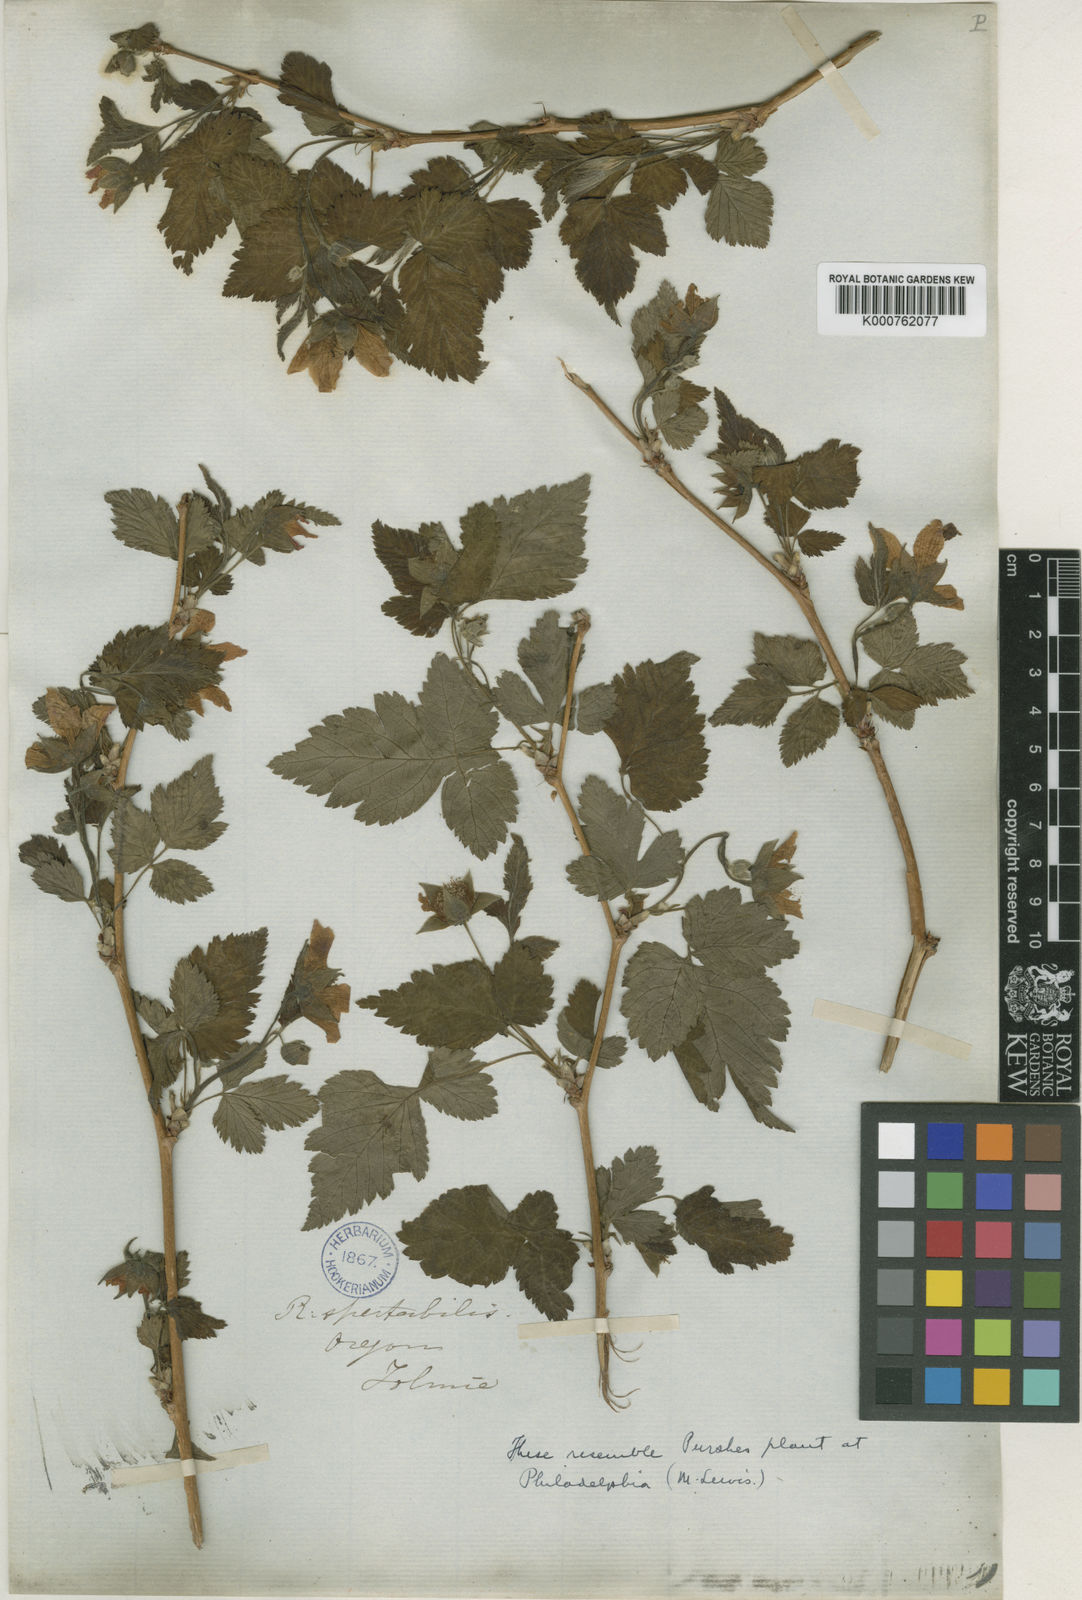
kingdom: Plantae
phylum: Tracheophyta
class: Magnoliopsida
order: Rosales
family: Rosaceae
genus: Rubus
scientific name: Rubus spectabilis
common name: Salmonberry
